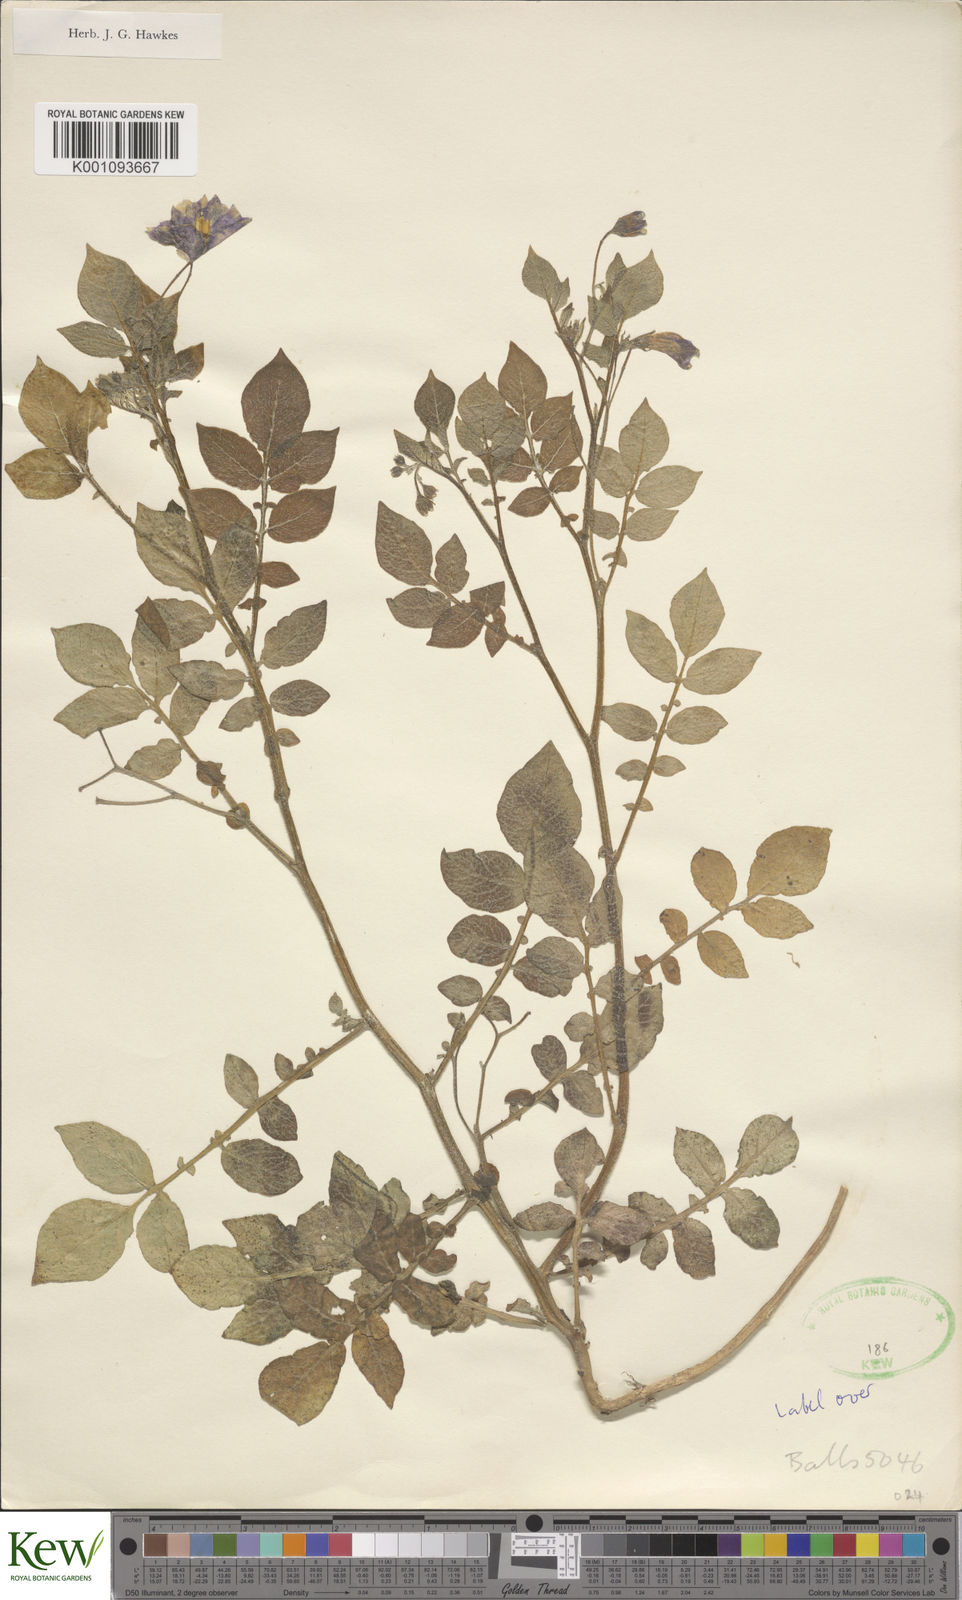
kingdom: Plantae
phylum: Tracheophyta
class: Magnoliopsida
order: Solanales
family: Solanaceae
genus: Solanum
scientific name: Solanum demissum
